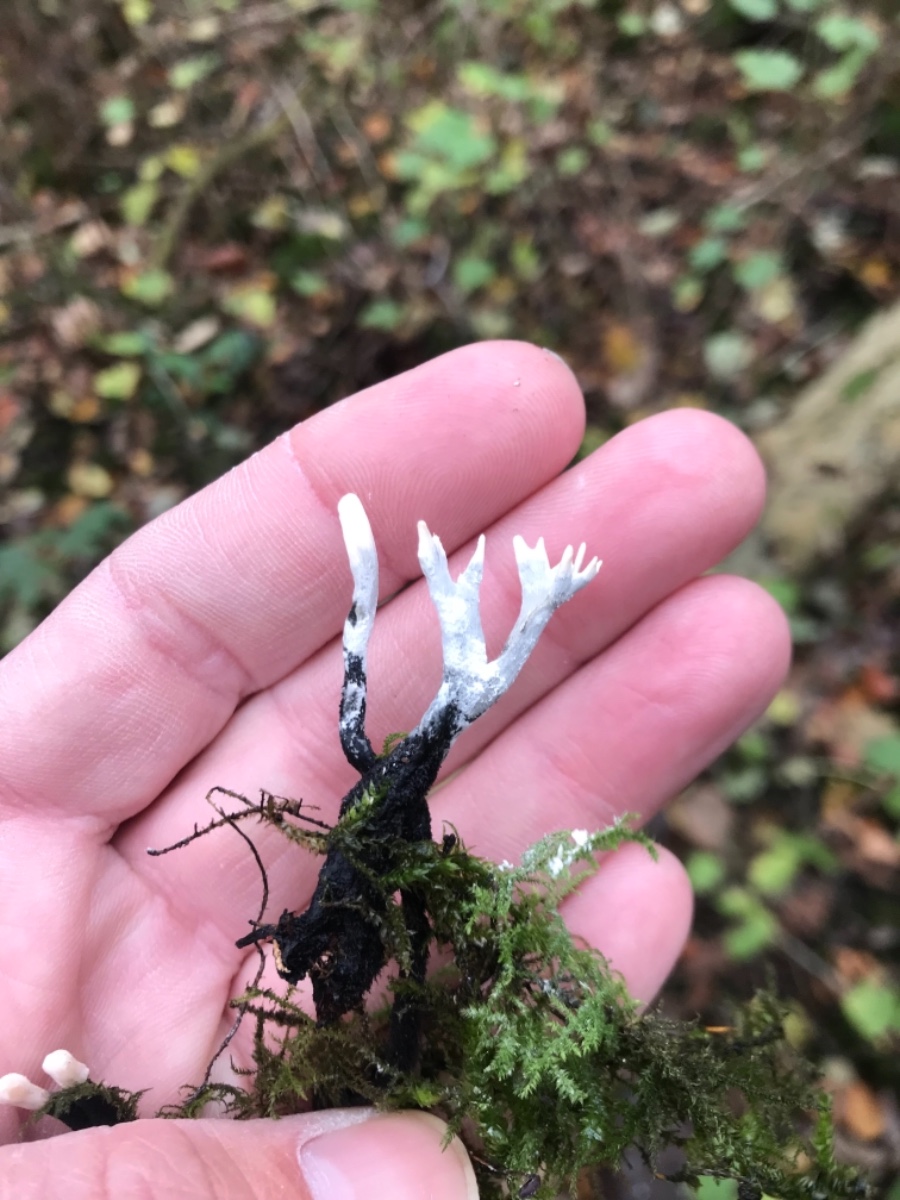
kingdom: Fungi
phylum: Ascomycota
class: Sordariomycetes
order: Xylariales
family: Xylariaceae
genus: Xylaria
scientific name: Xylaria hypoxylon
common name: grenet stødsvamp
